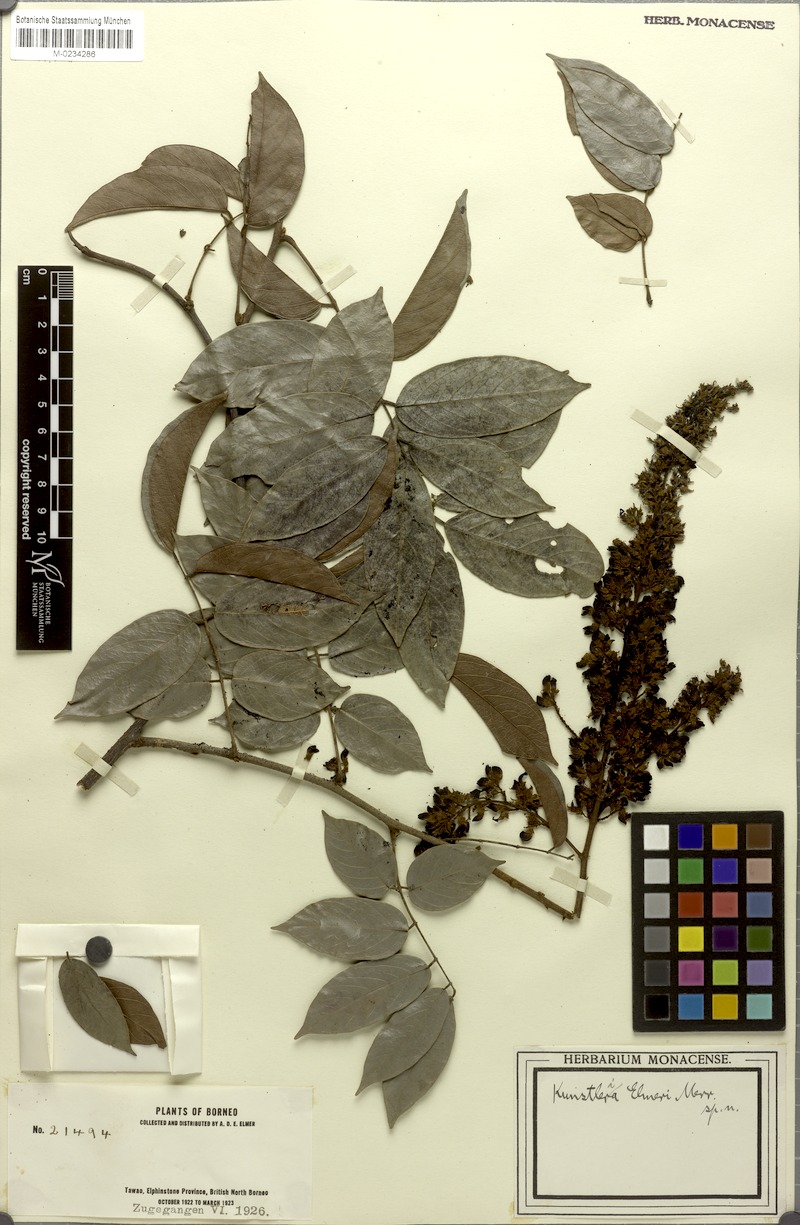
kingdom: Plantae
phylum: Tracheophyta
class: Magnoliopsida
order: Fabales
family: Fabaceae
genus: Kunstleria
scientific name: Kunstleria ridleyi
